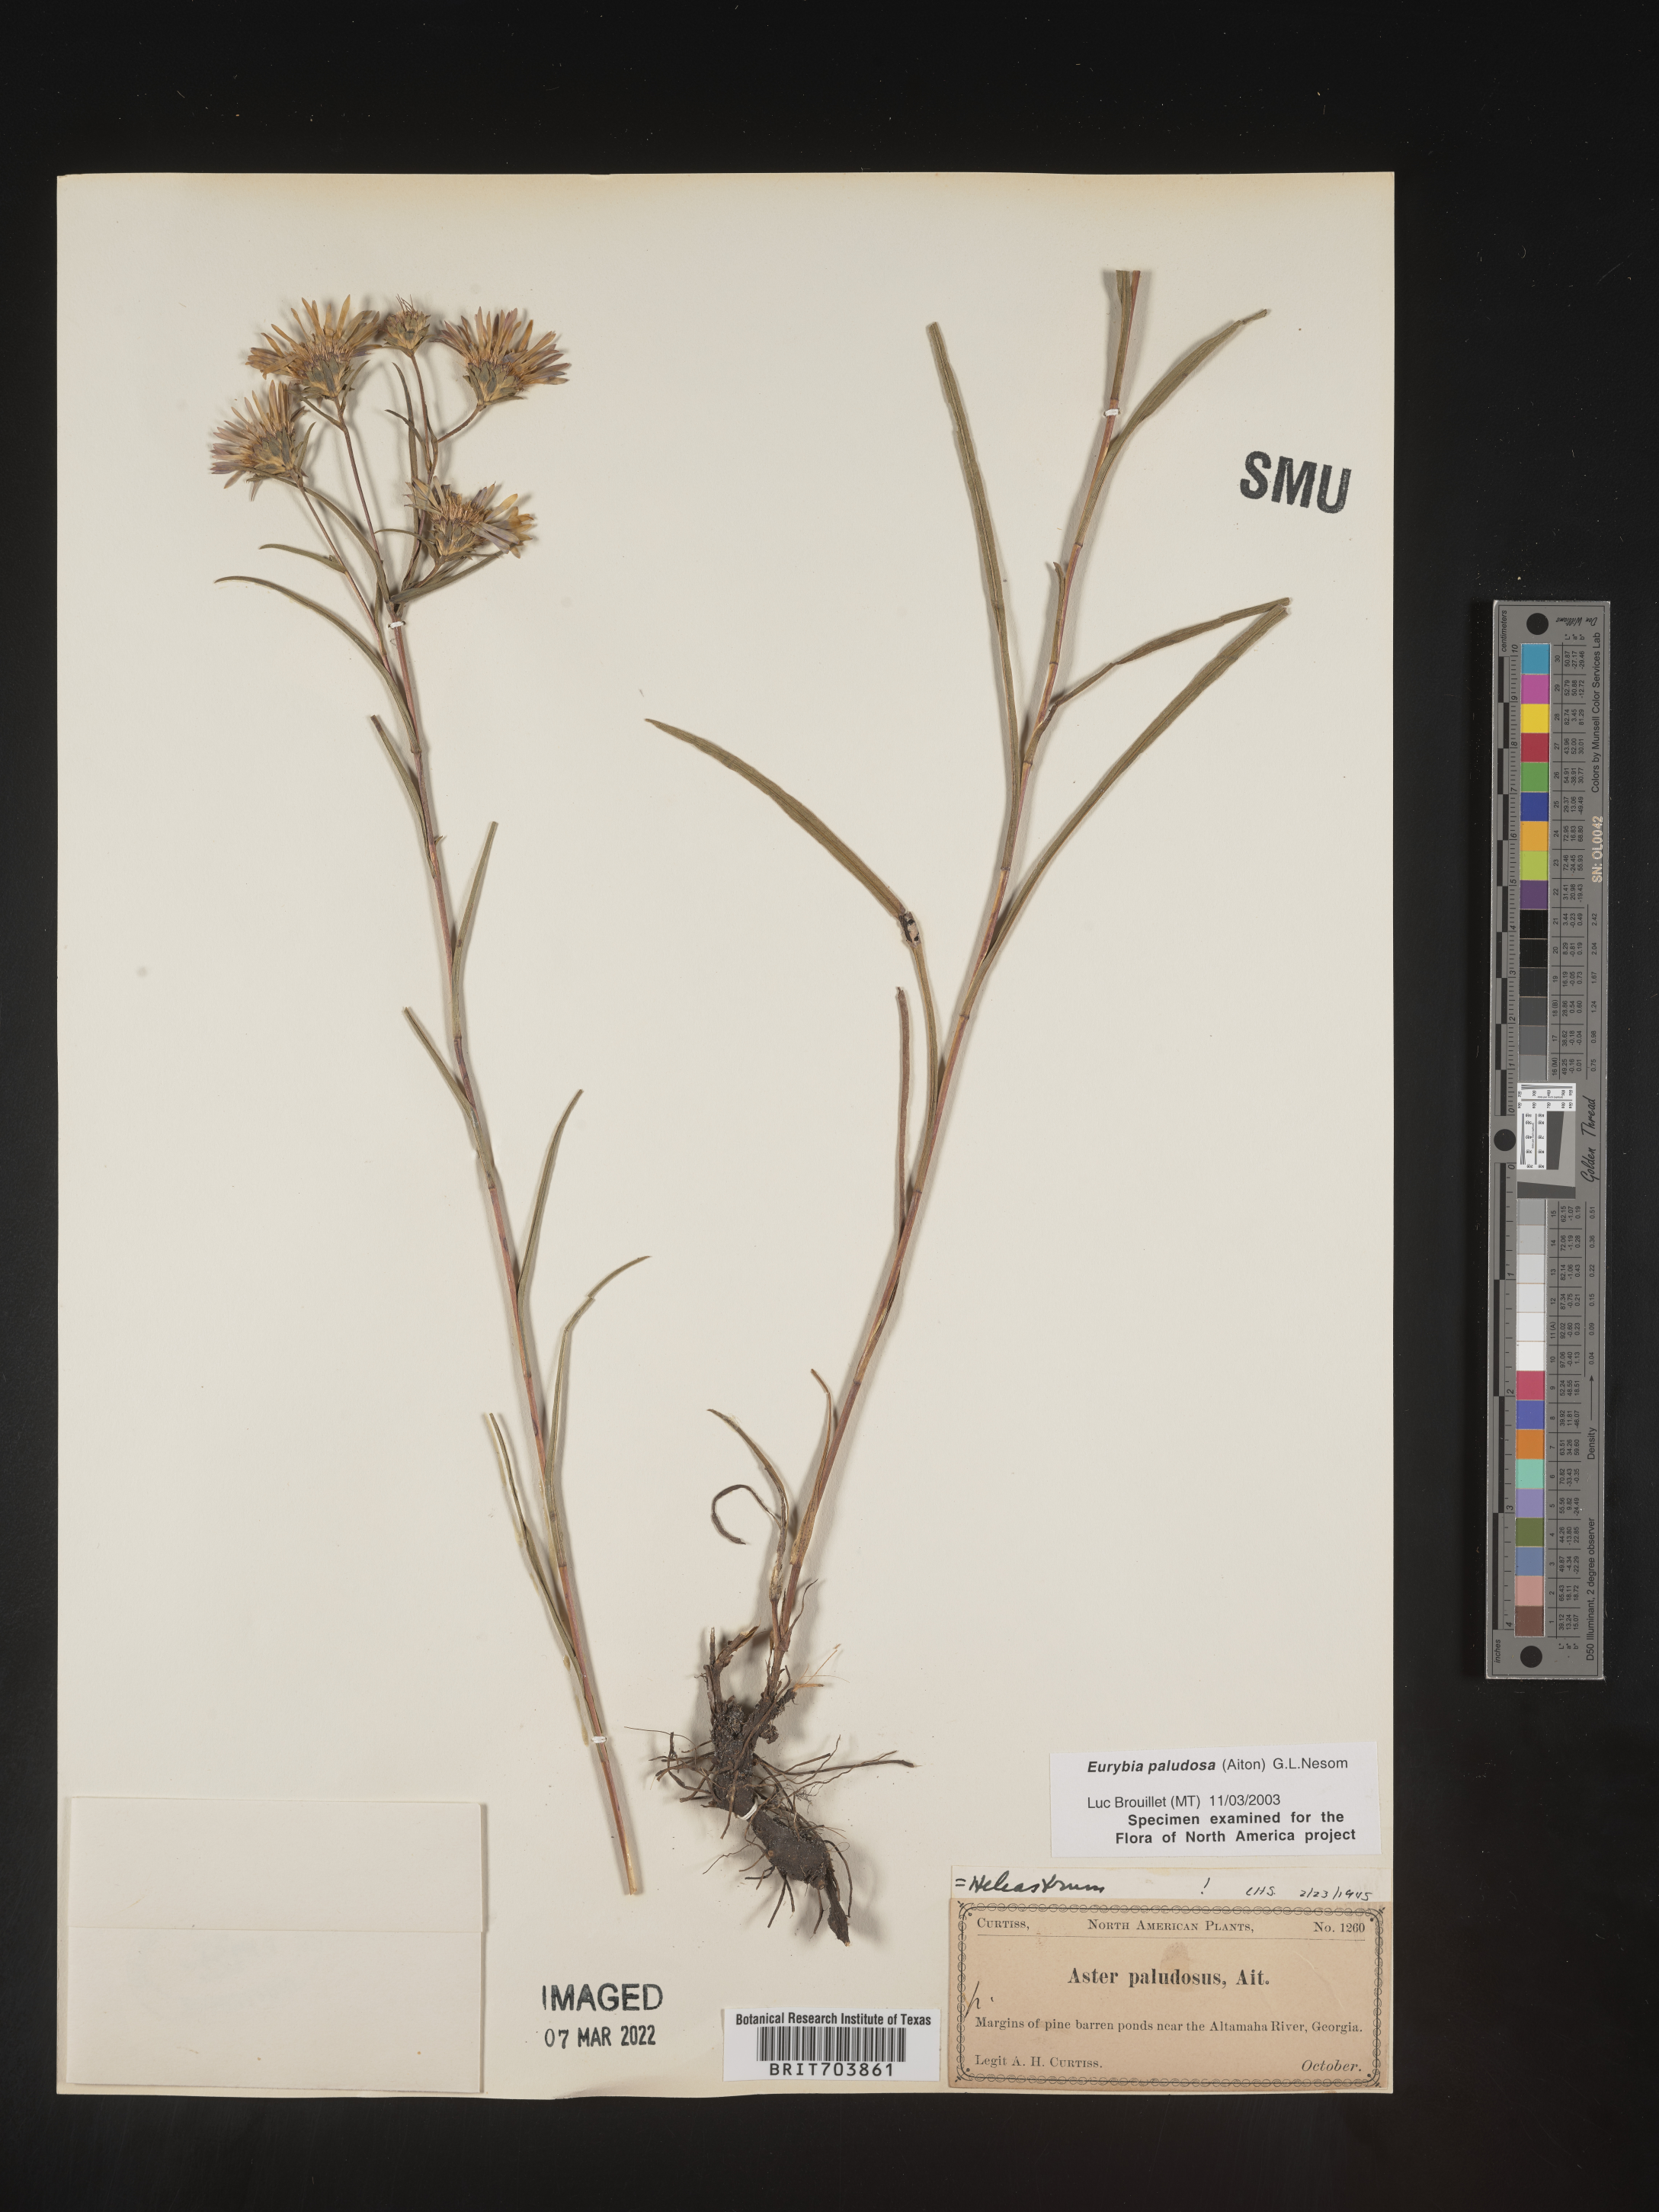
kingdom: Plantae
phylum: Tracheophyta
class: Magnoliopsida
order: Asterales
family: Asteraceae
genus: Eurybia
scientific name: Eurybia paludosa
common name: Southern swamp aster
